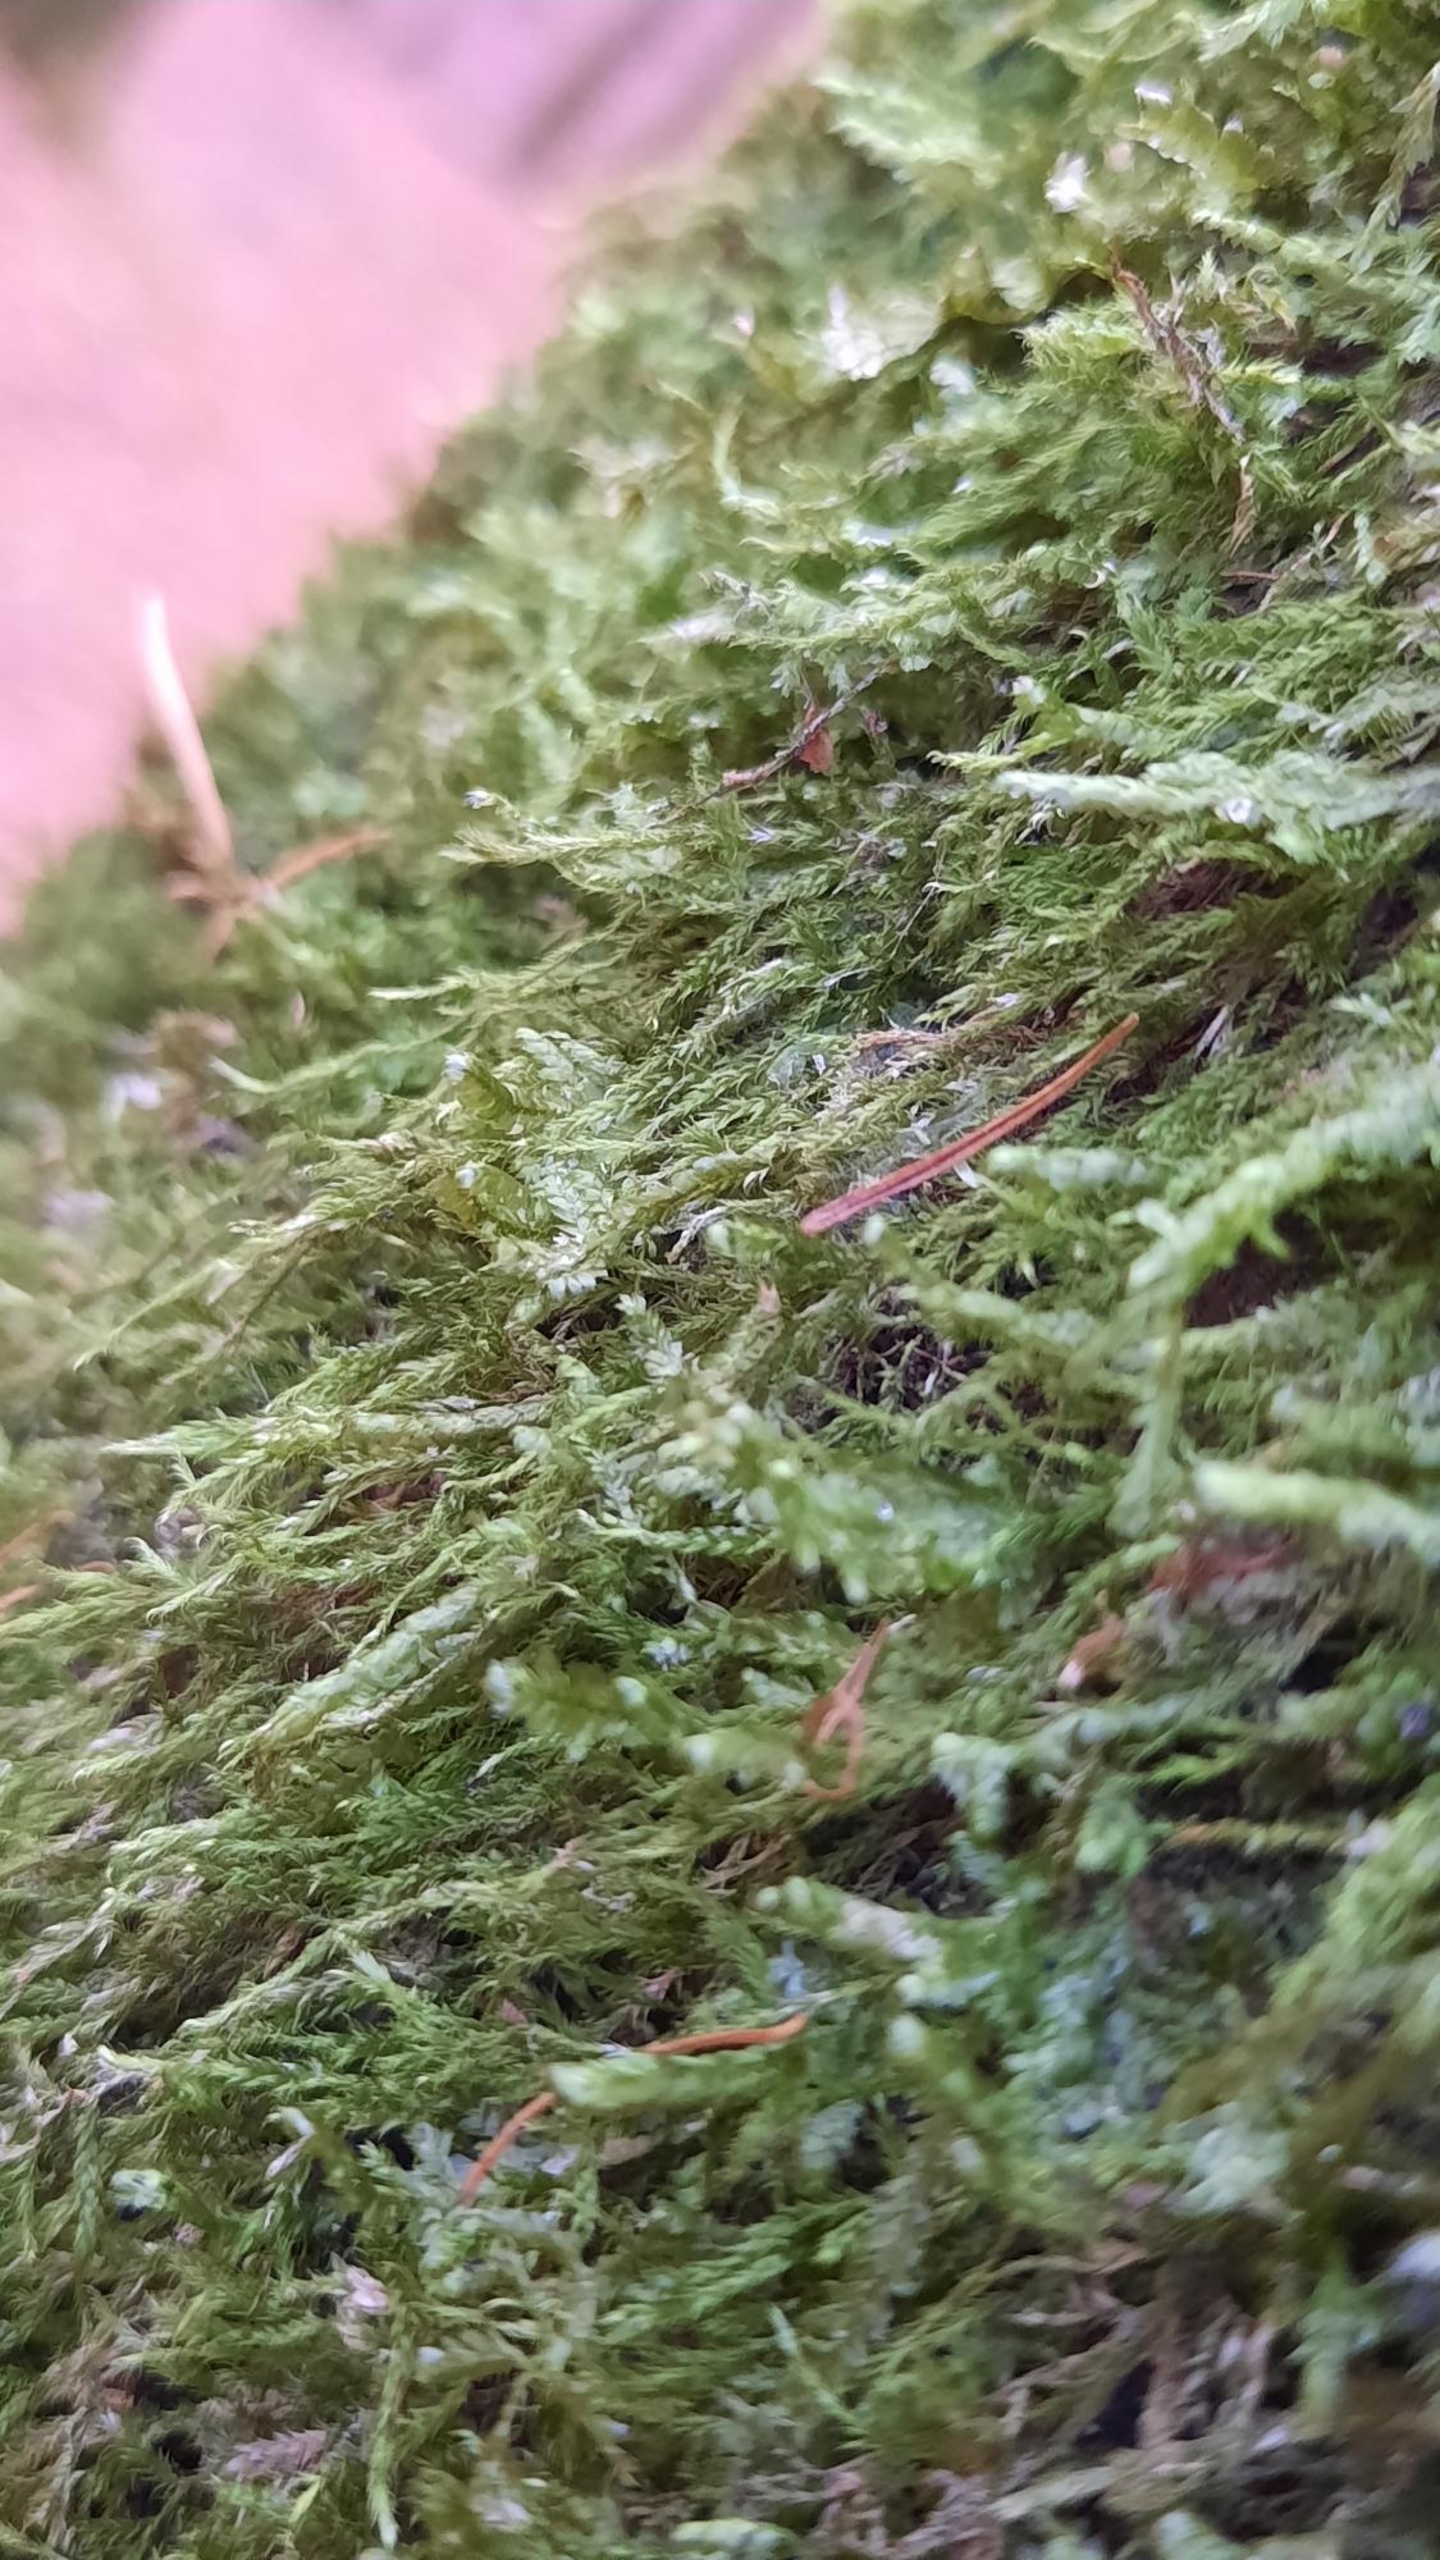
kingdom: Plantae
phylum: Bryophyta
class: Bryopsida
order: Hypnales
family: Neckeraceae
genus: Alleniella
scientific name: Alleniella complanata
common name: Almindelig fladmos
